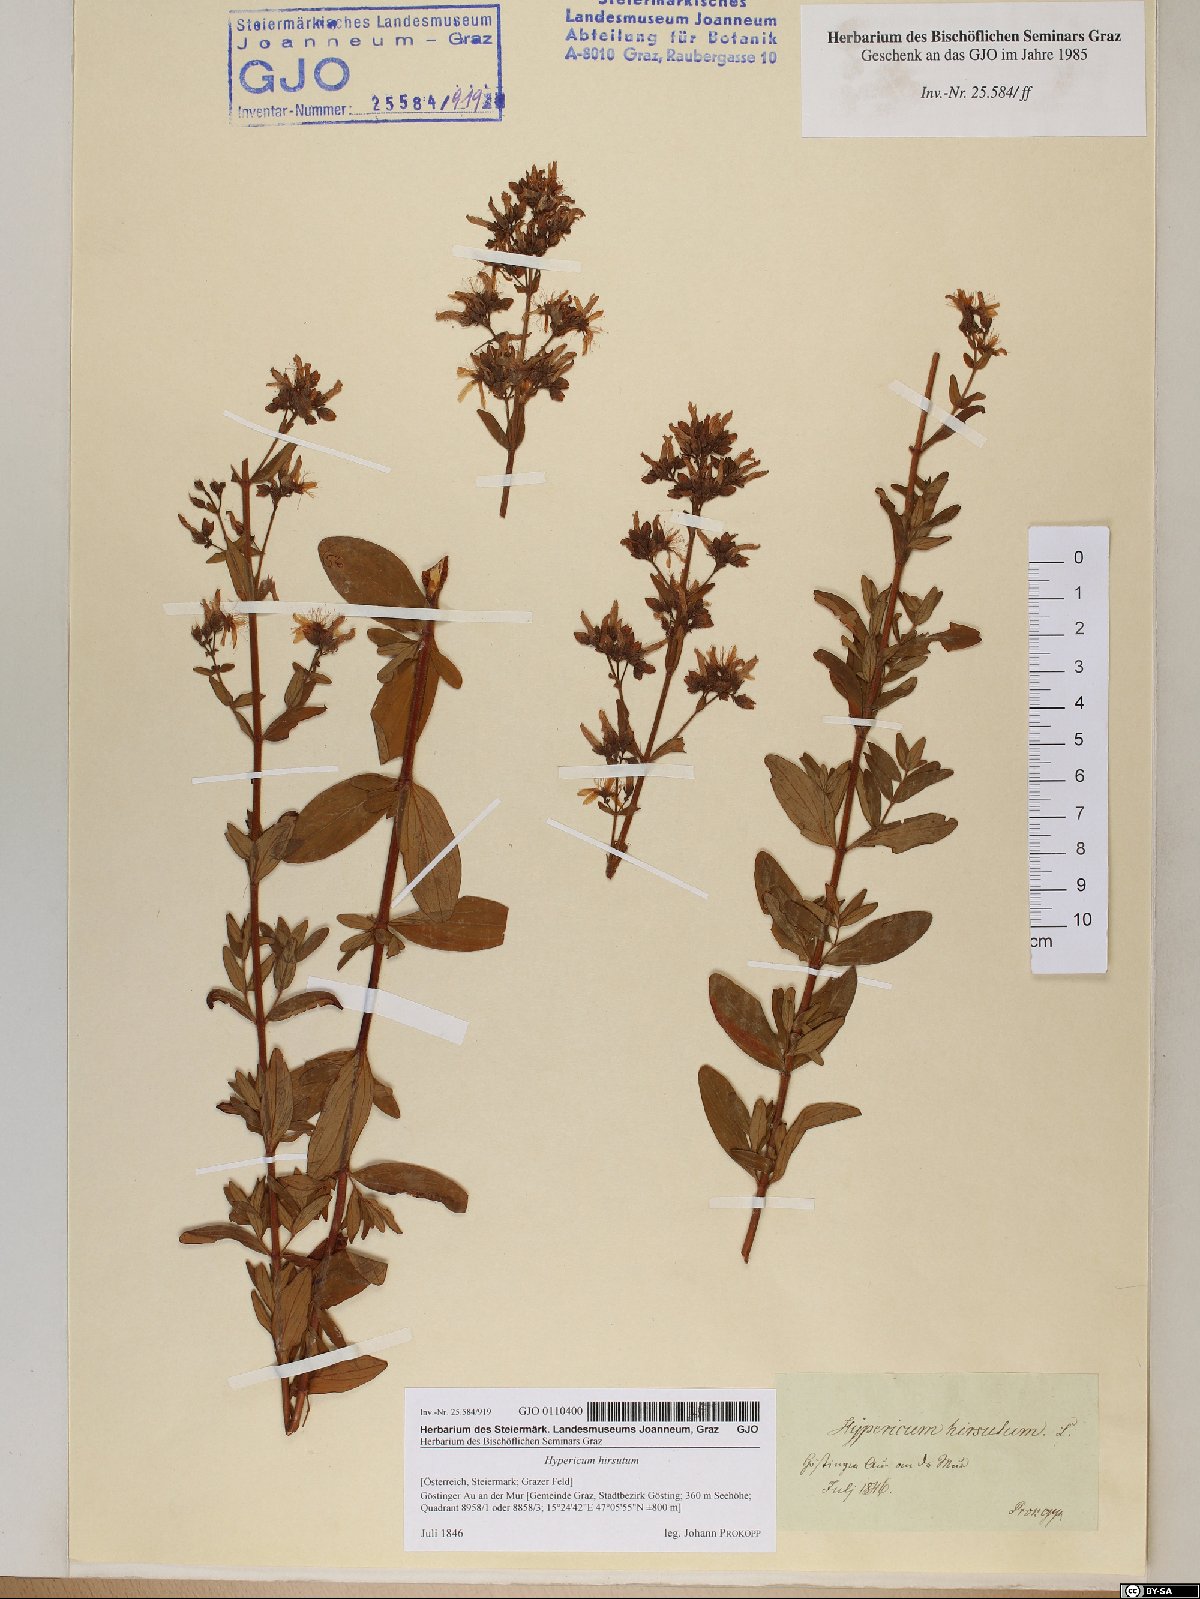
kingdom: Plantae
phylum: Tracheophyta
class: Magnoliopsida
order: Malpighiales
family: Hypericaceae
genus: Hypericum
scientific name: Hypericum hirsutum
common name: Hairy st. john's-wort
